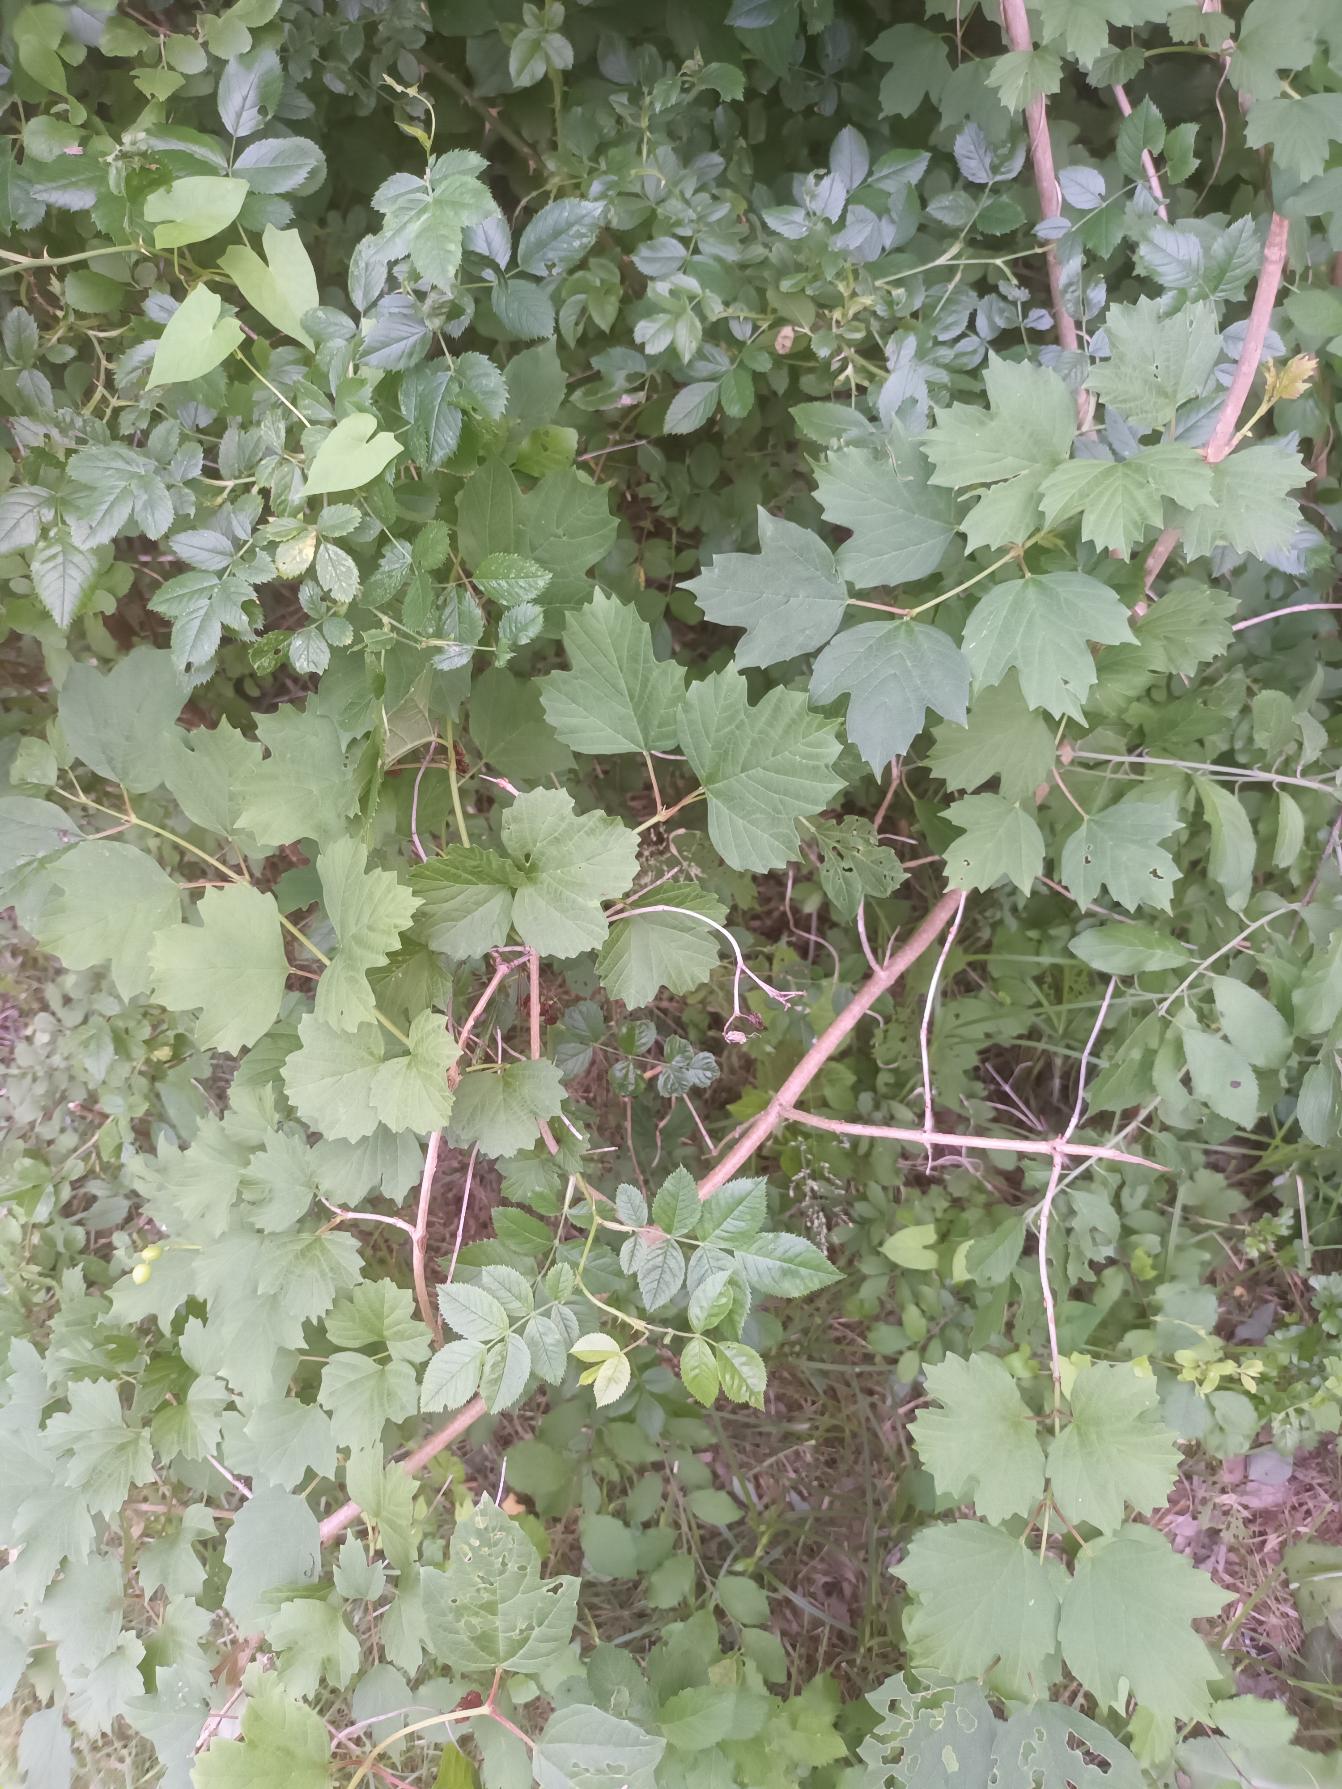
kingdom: Plantae
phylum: Tracheophyta
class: Magnoliopsida
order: Dipsacales
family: Viburnaceae
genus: Viburnum
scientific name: Viburnum opulus
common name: Kvalkved
